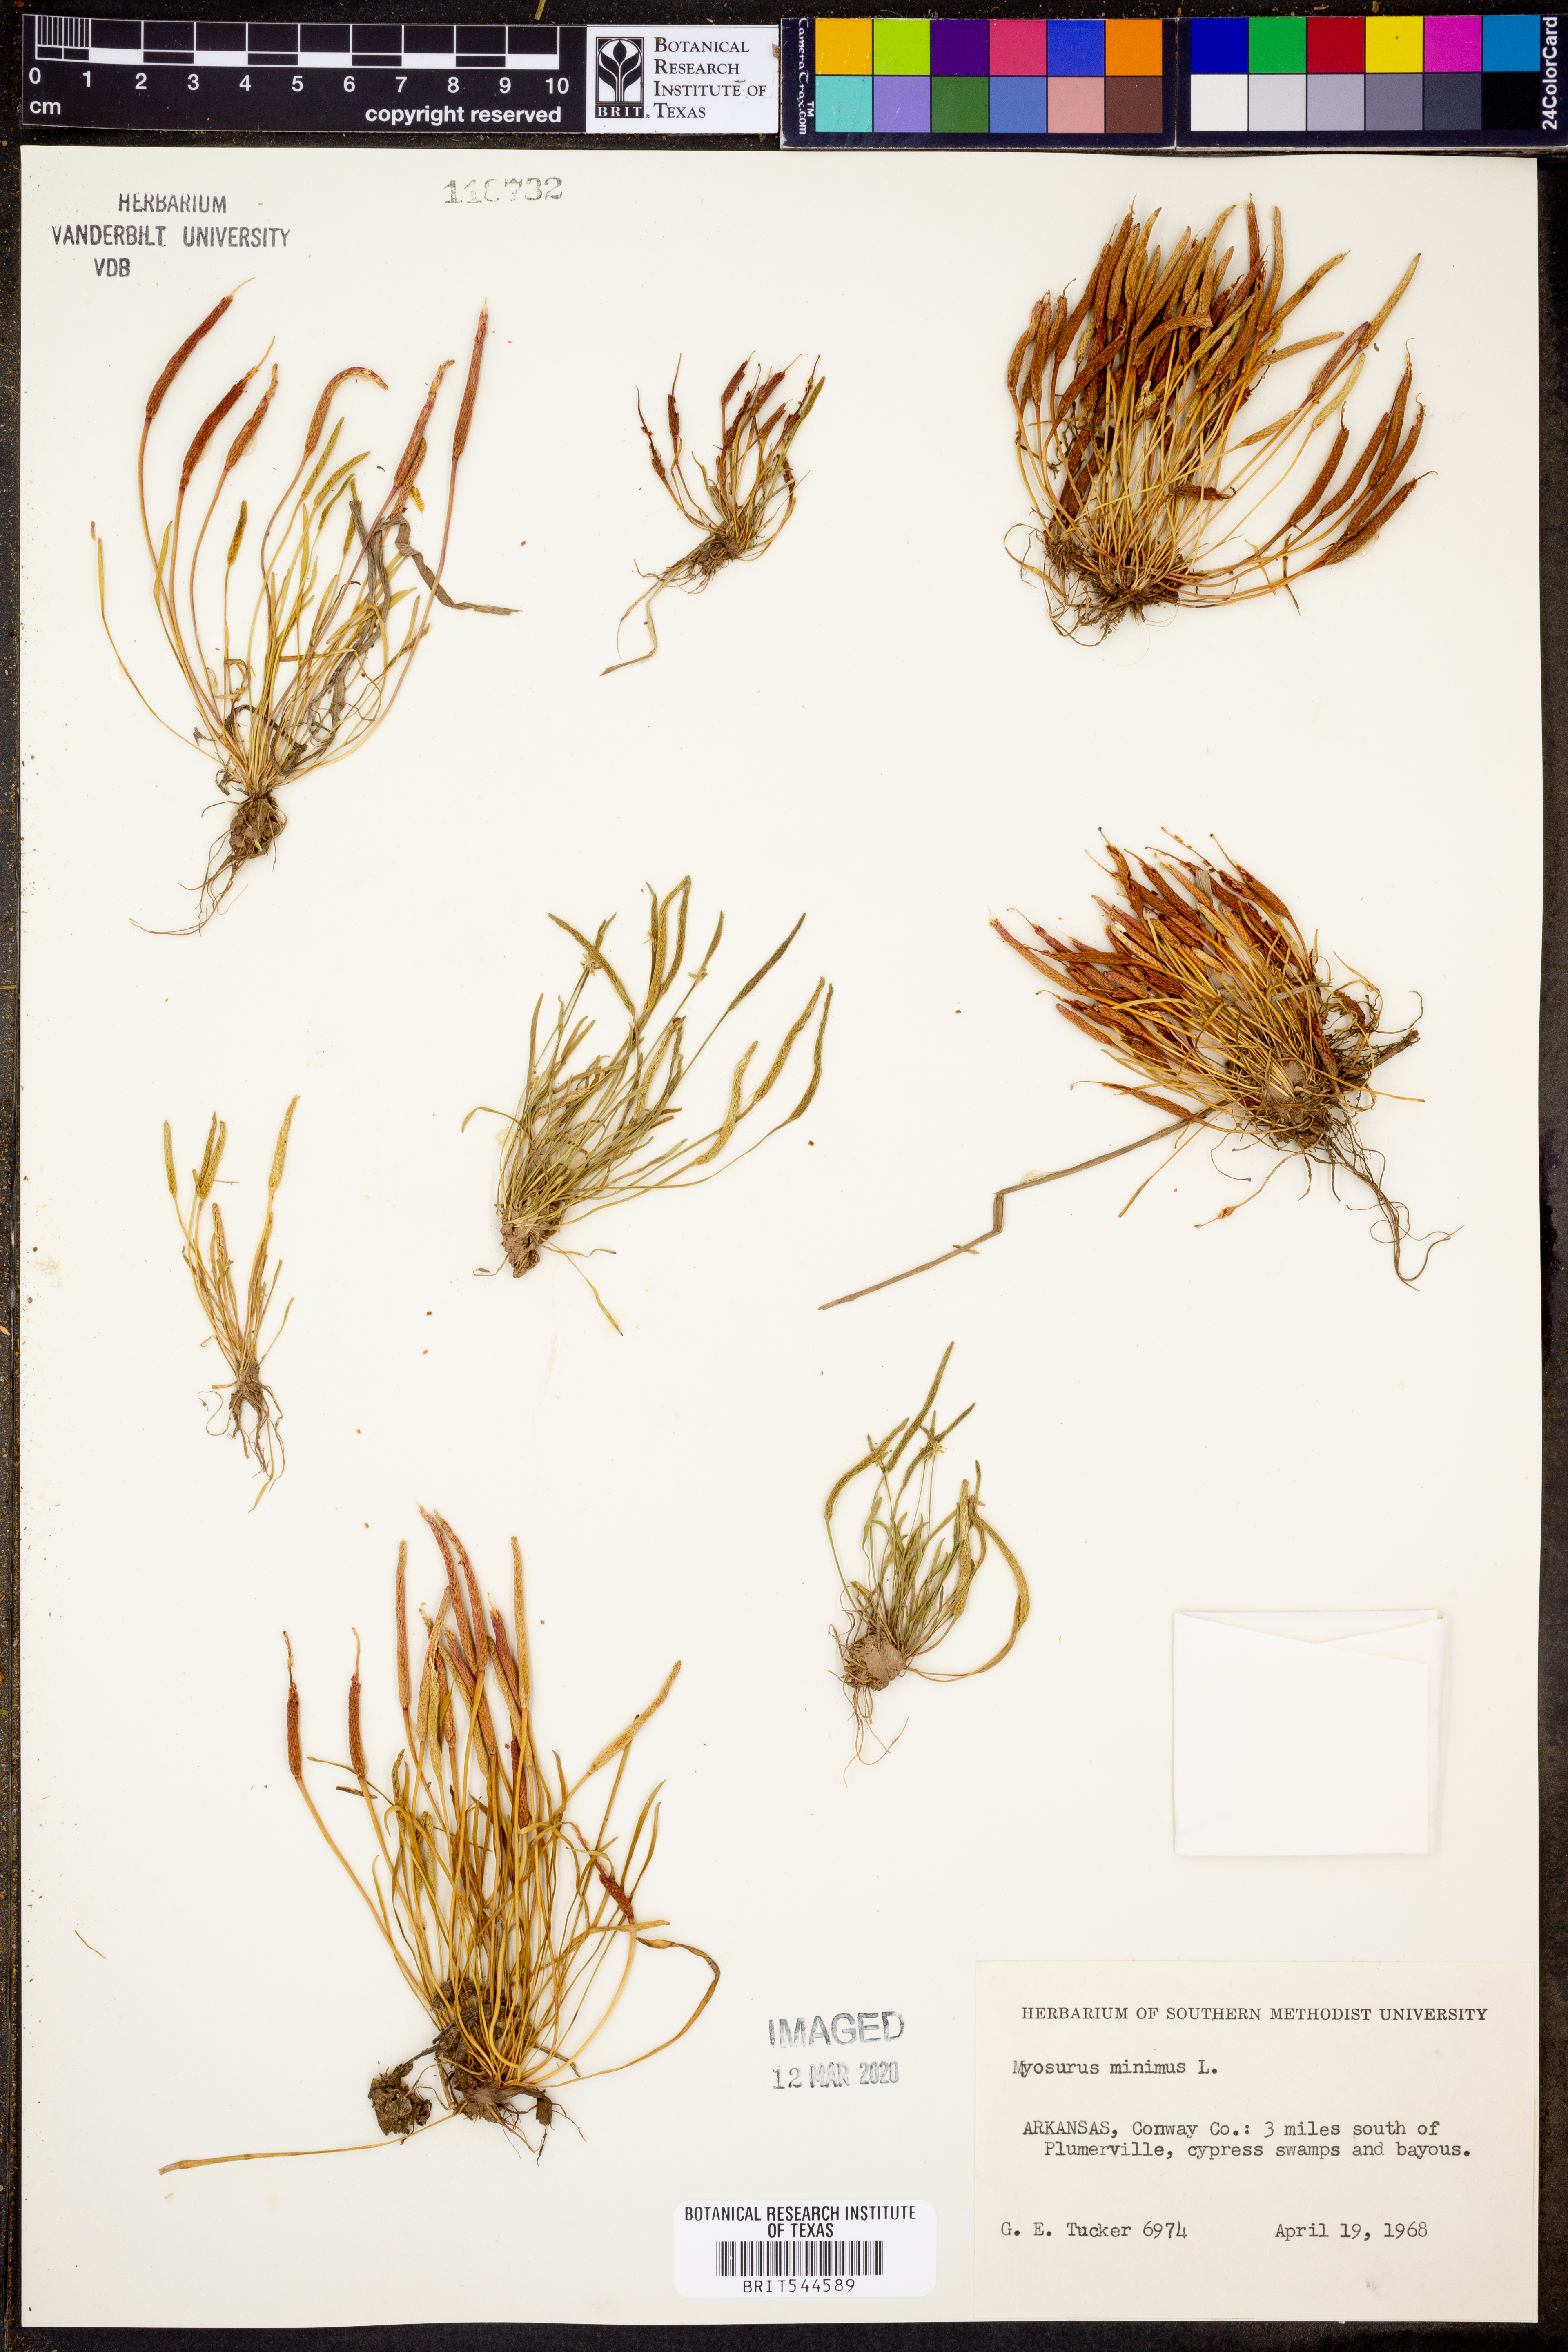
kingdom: Plantae
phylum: Tracheophyta
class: Magnoliopsida
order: Ranunculales
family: Ranunculaceae
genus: Myosurus
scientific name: Myosurus minimus
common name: Mousetail
